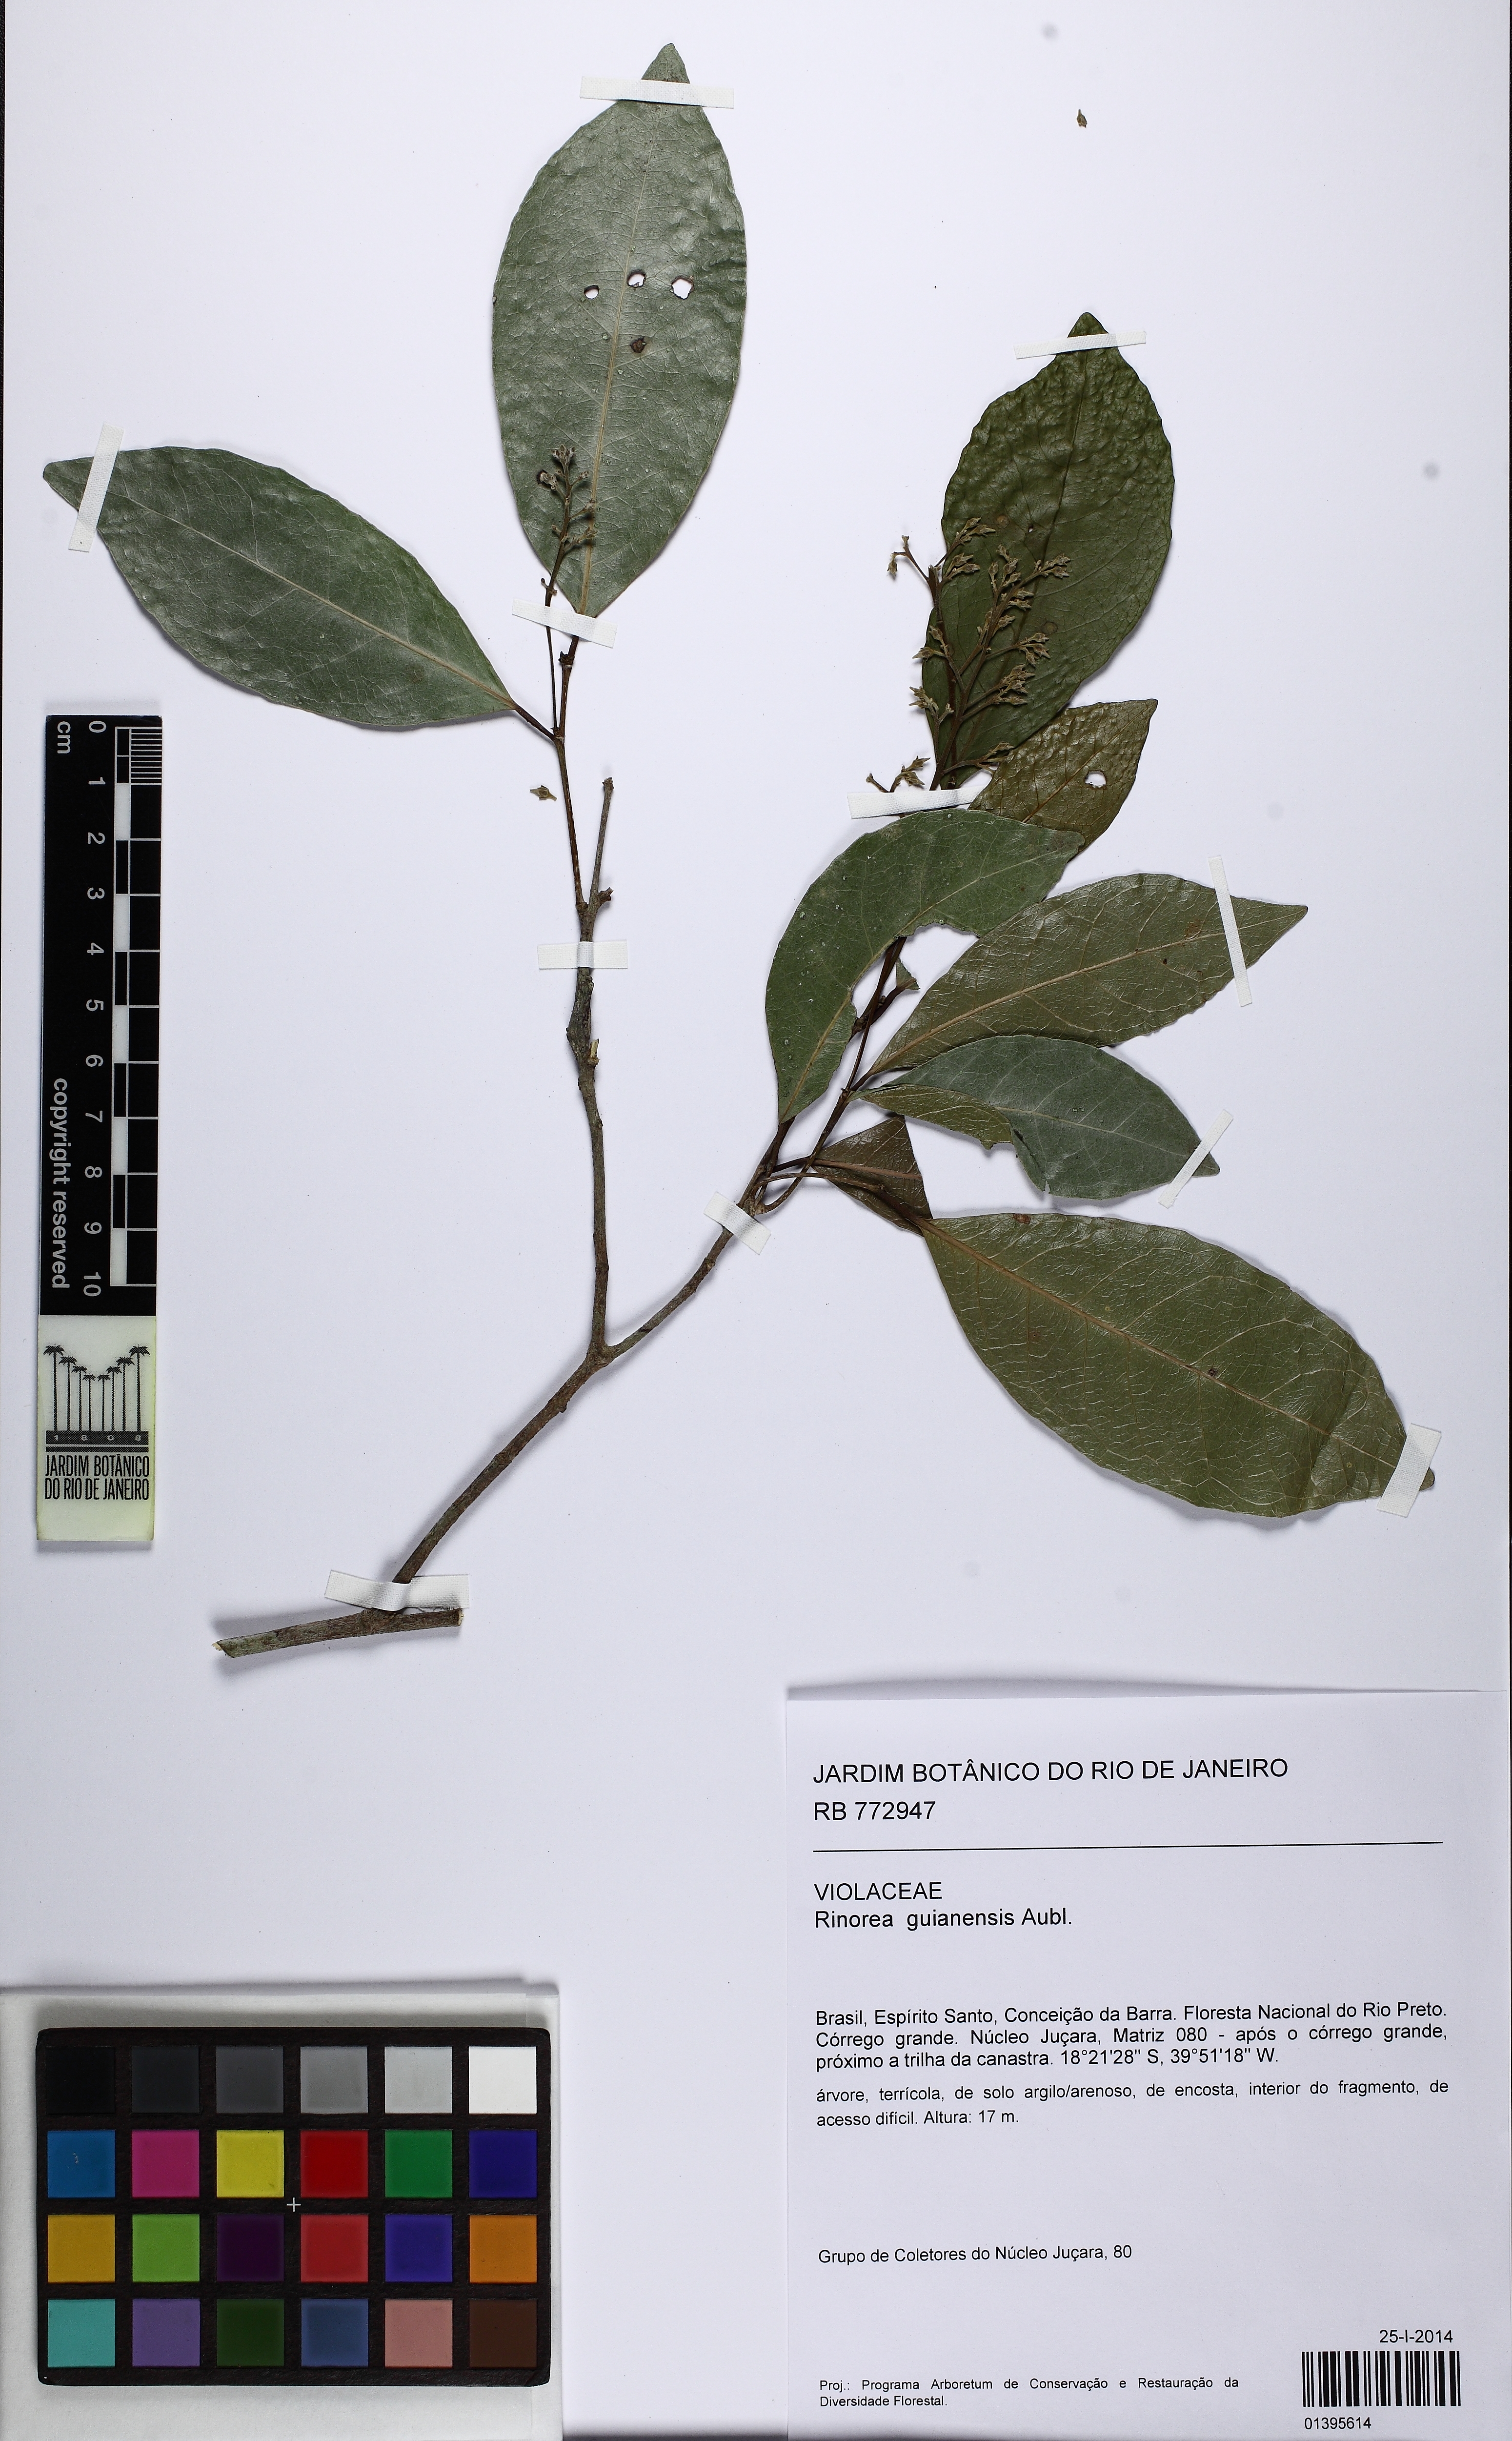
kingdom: Plantae
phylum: Tracheophyta
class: Magnoliopsida
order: Malpighiales
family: Violaceae
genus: Rinorea
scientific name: Rinorea guianensis
